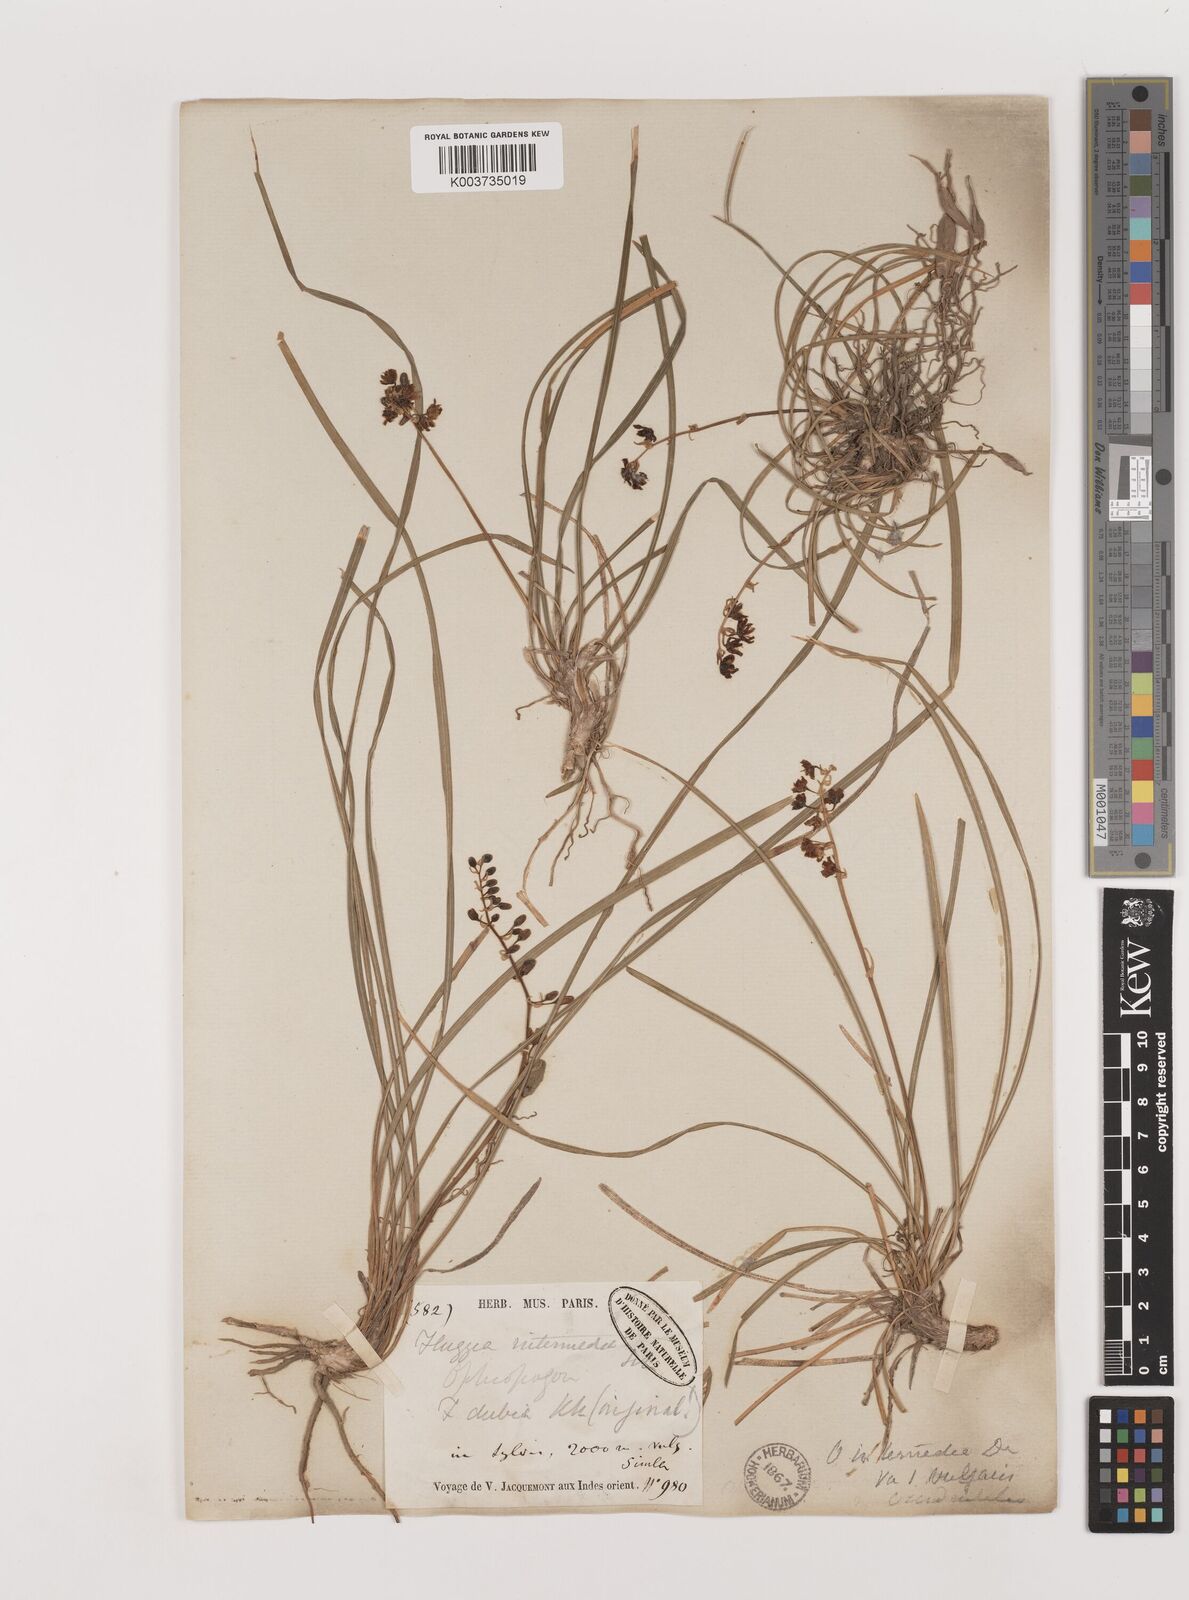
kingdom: Plantae
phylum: Tracheophyta
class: Liliopsida
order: Asparagales
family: Asparagaceae
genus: Ophiopogon
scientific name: Ophiopogon intermedius
